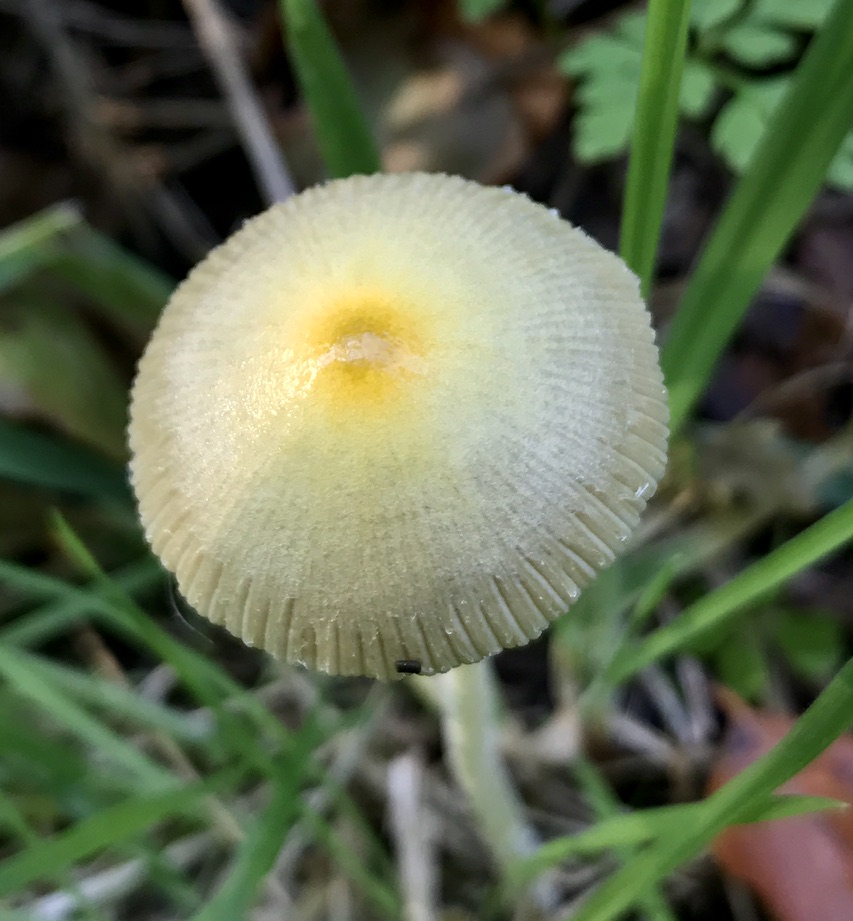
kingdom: Fungi
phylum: Basidiomycota
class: Agaricomycetes
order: Agaricales
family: Bolbitiaceae
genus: Bolbitius
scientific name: Bolbitius titubans
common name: almindelig gulhat
